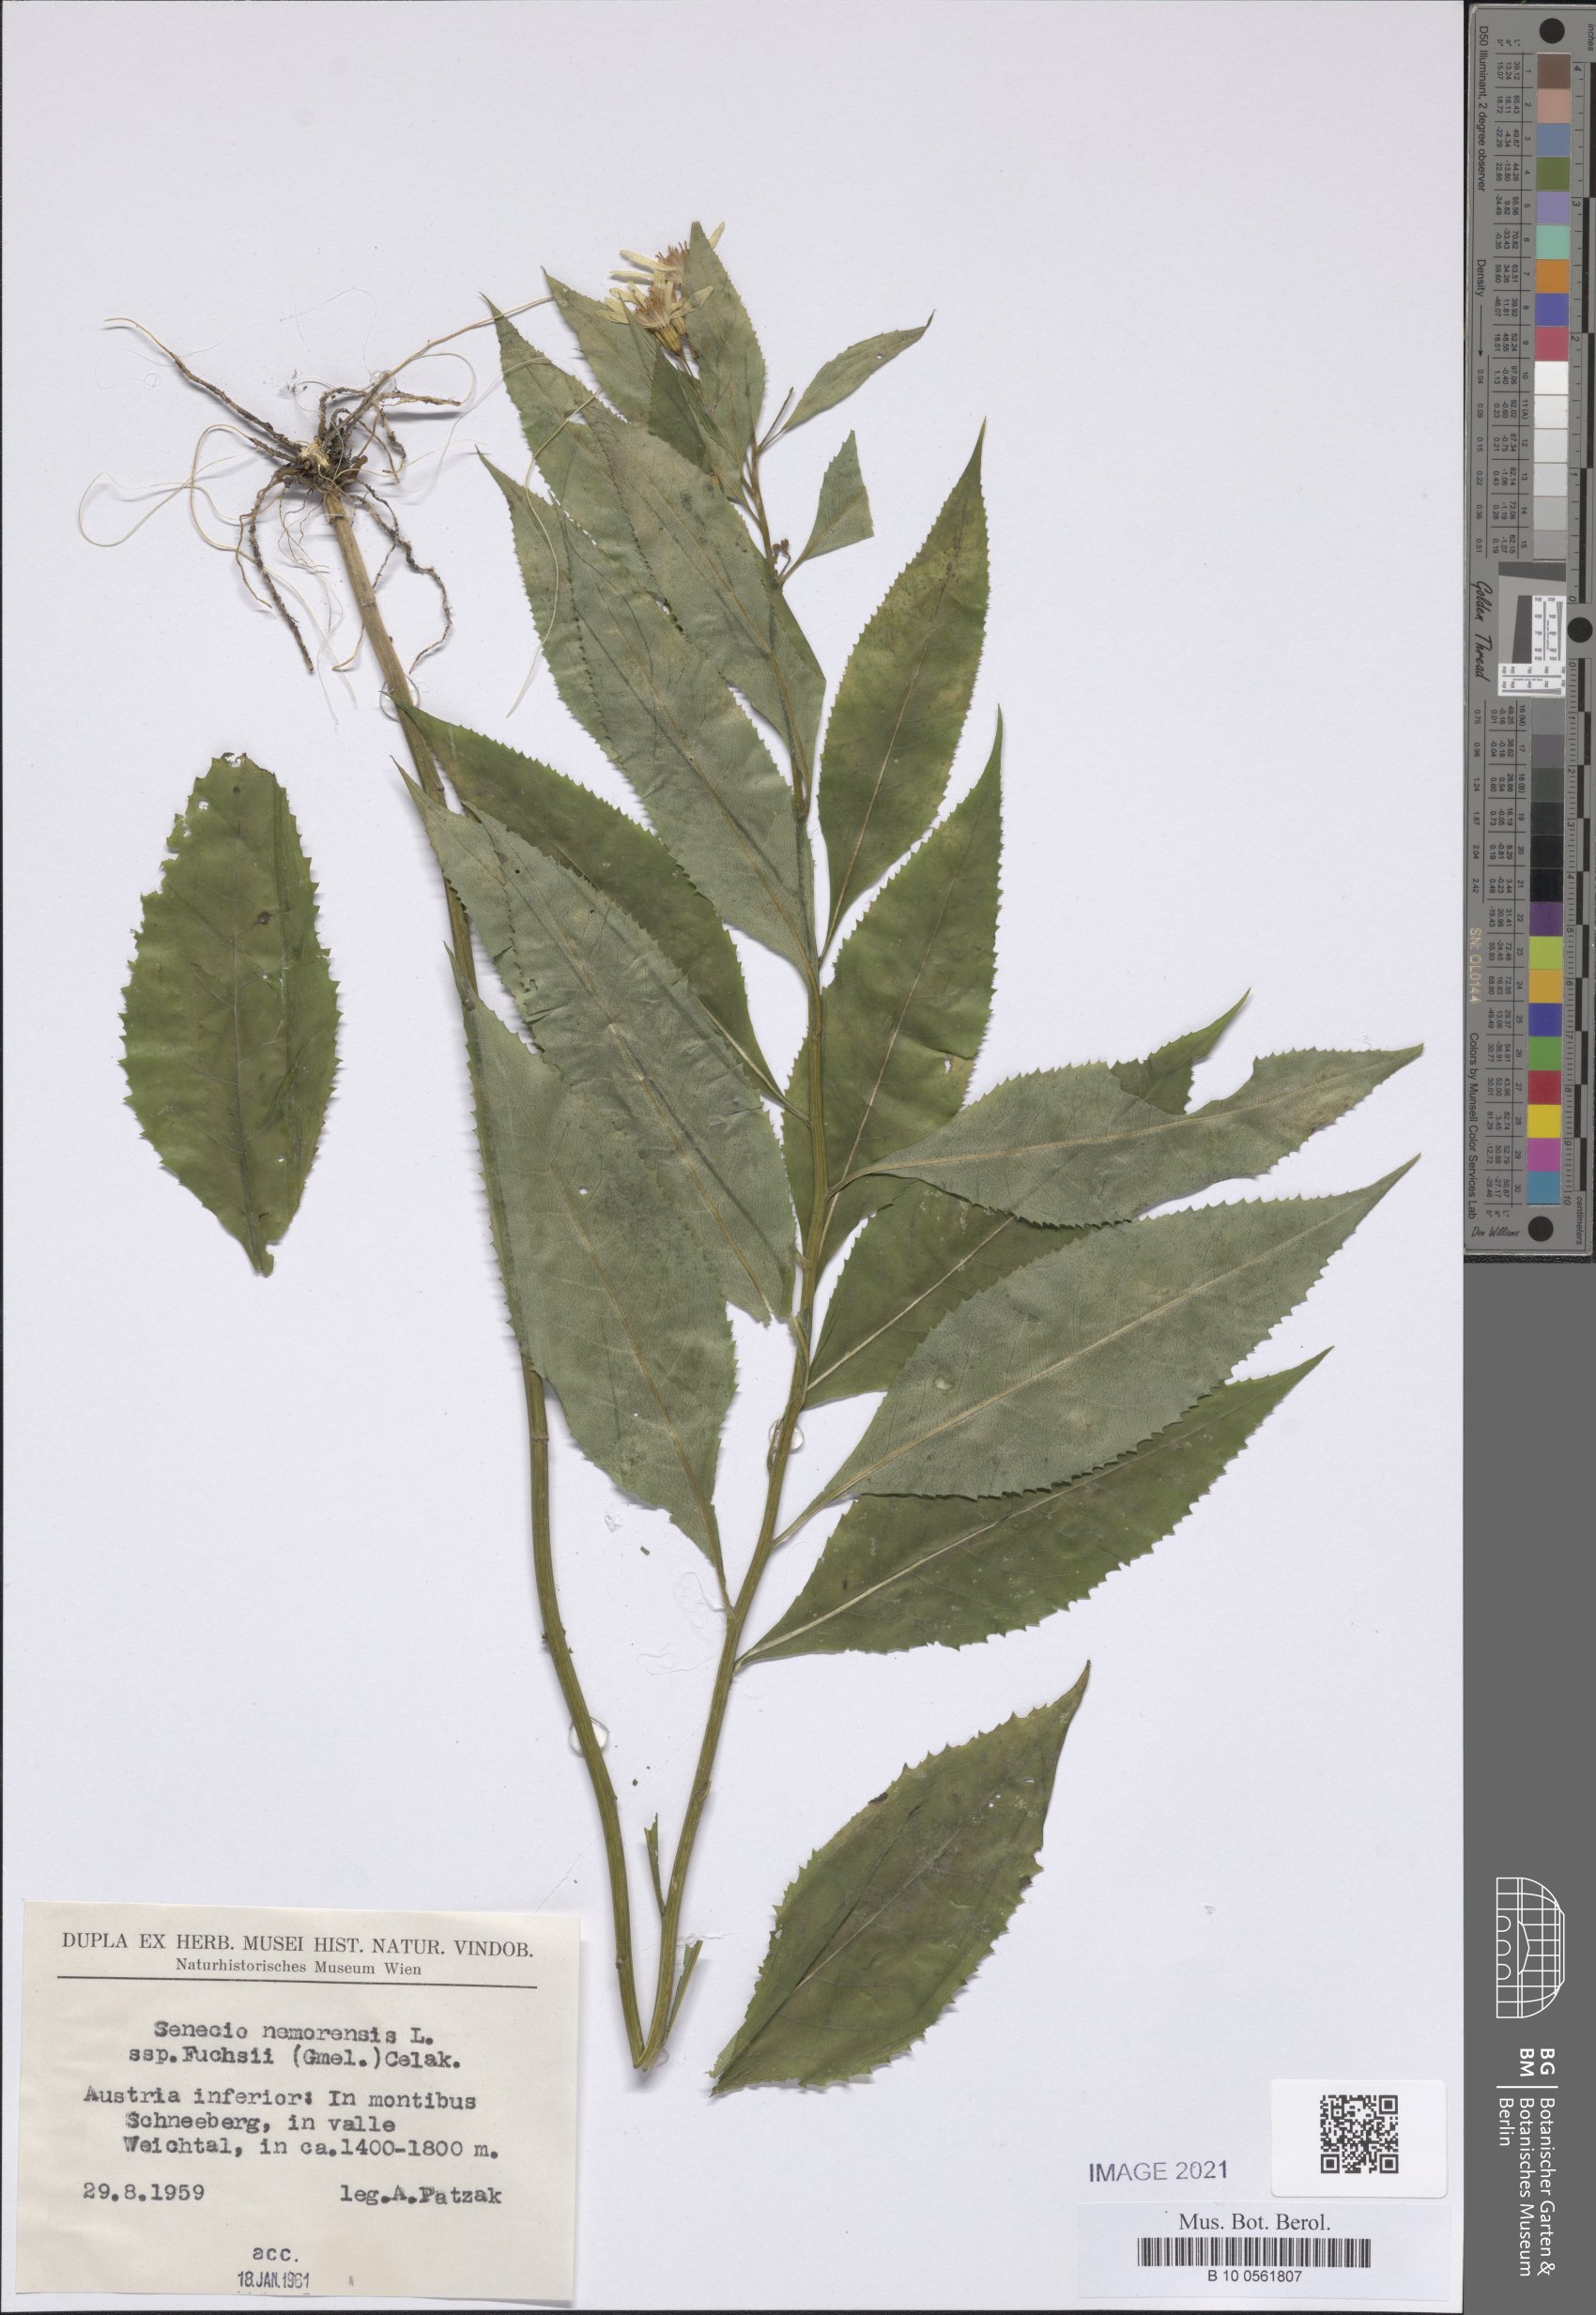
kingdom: Plantae
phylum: Tracheophyta
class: Magnoliopsida
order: Asterales
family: Asteraceae
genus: Senecio
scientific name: Senecio ovatus
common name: Wood ragwort
